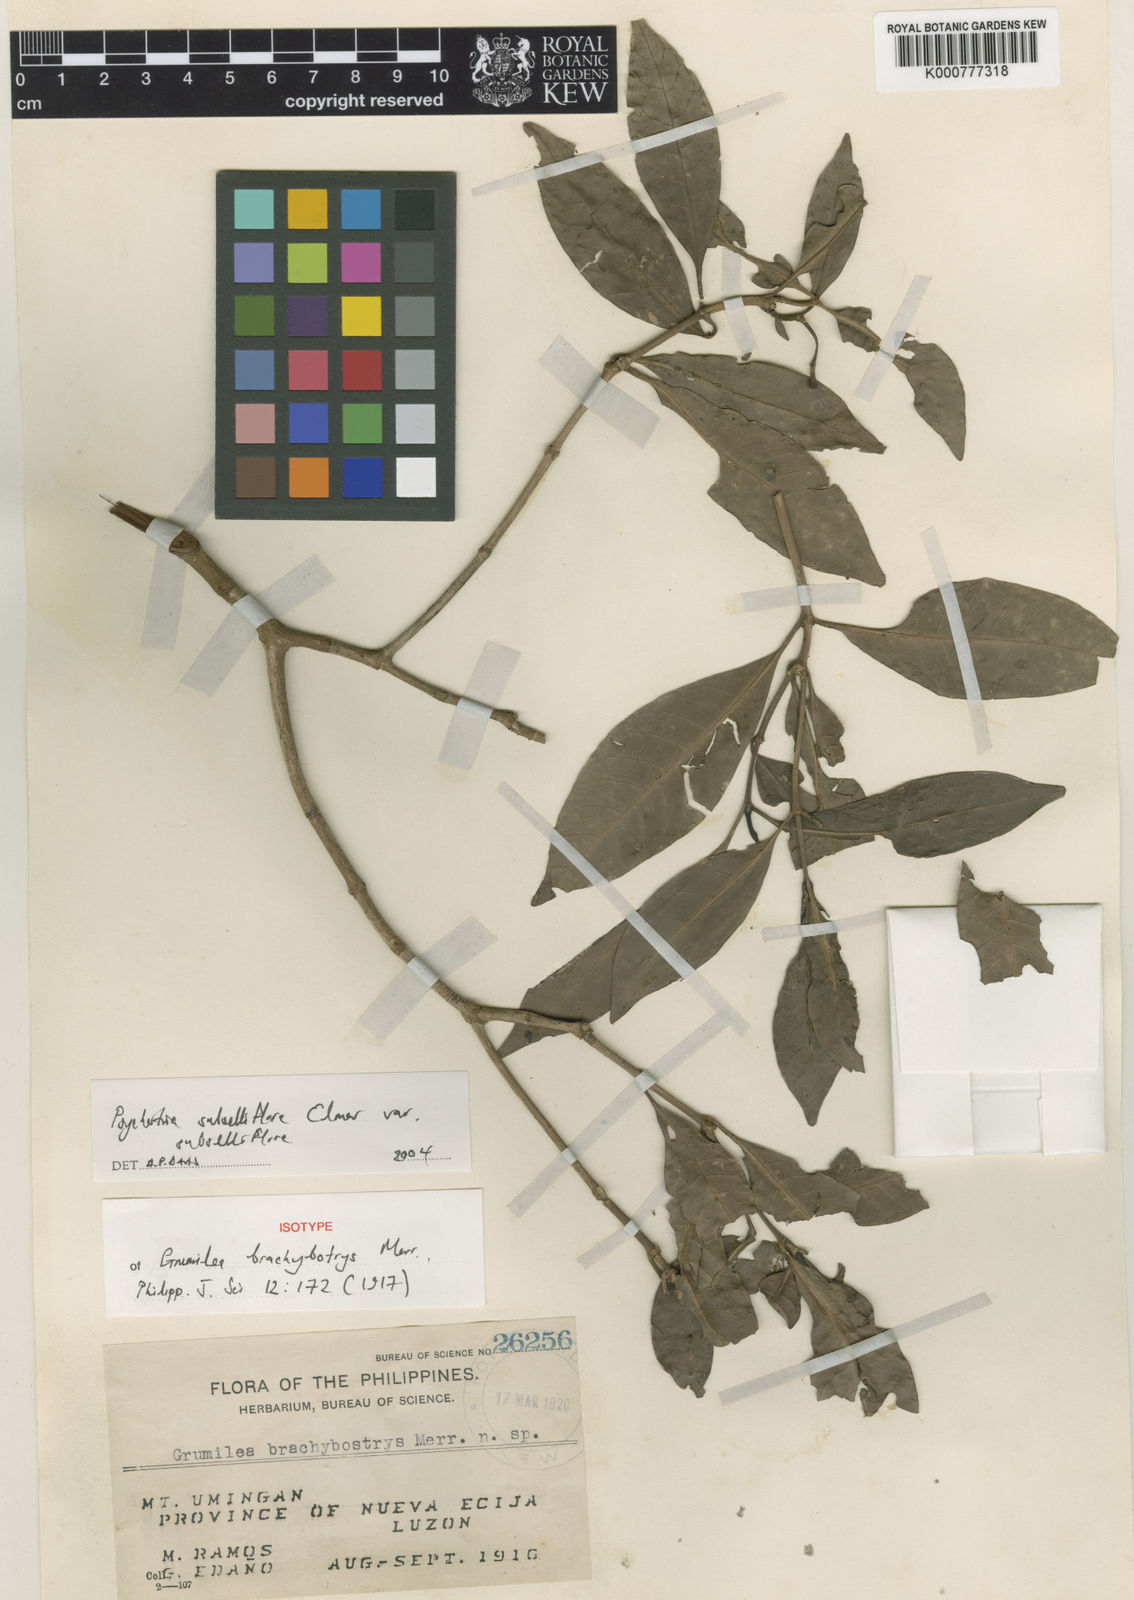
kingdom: Plantae
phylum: Tracheophyta
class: Magnoliopsida
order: Gentianales
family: Rubiaceae
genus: Psychotria
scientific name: Psychotria subcucullata
